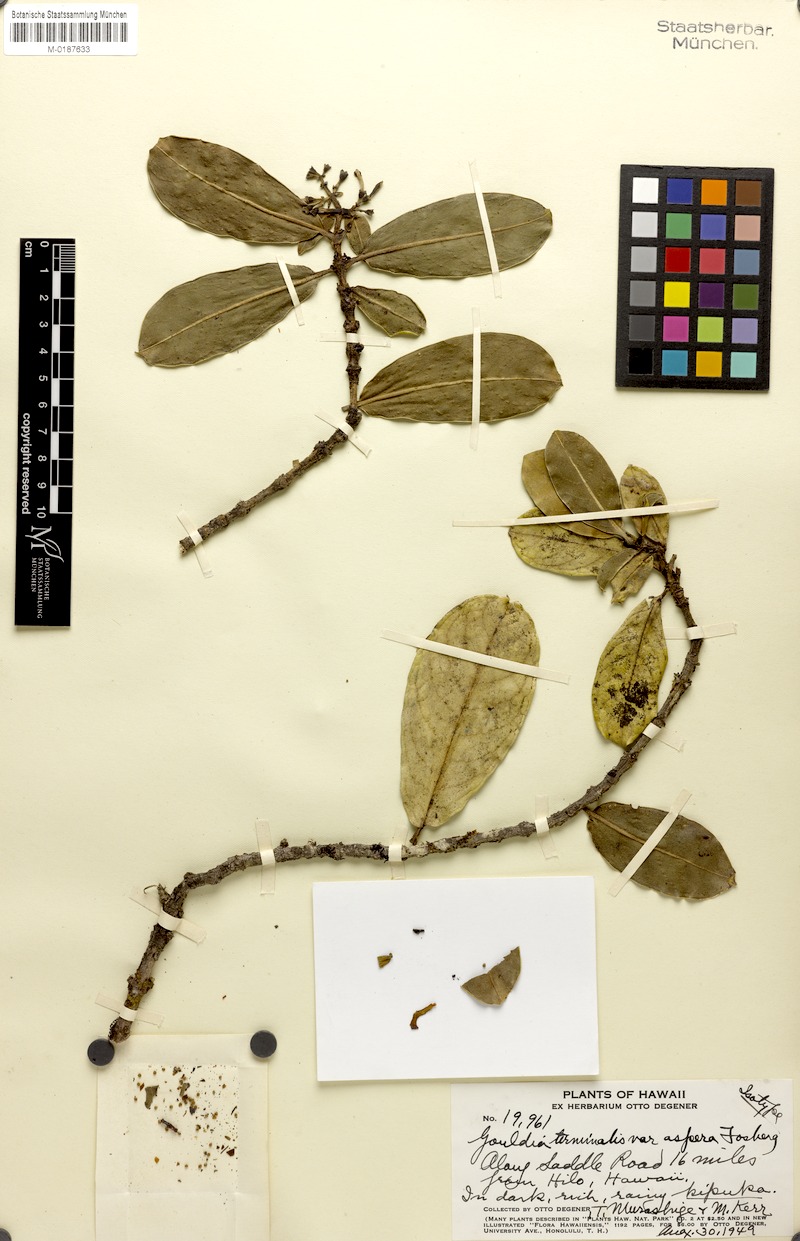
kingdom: Plantae
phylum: Tracheophyta
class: Magnoliopsida
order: Gentianales
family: Rubiaceae
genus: Kadua
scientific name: Kadua affinis
